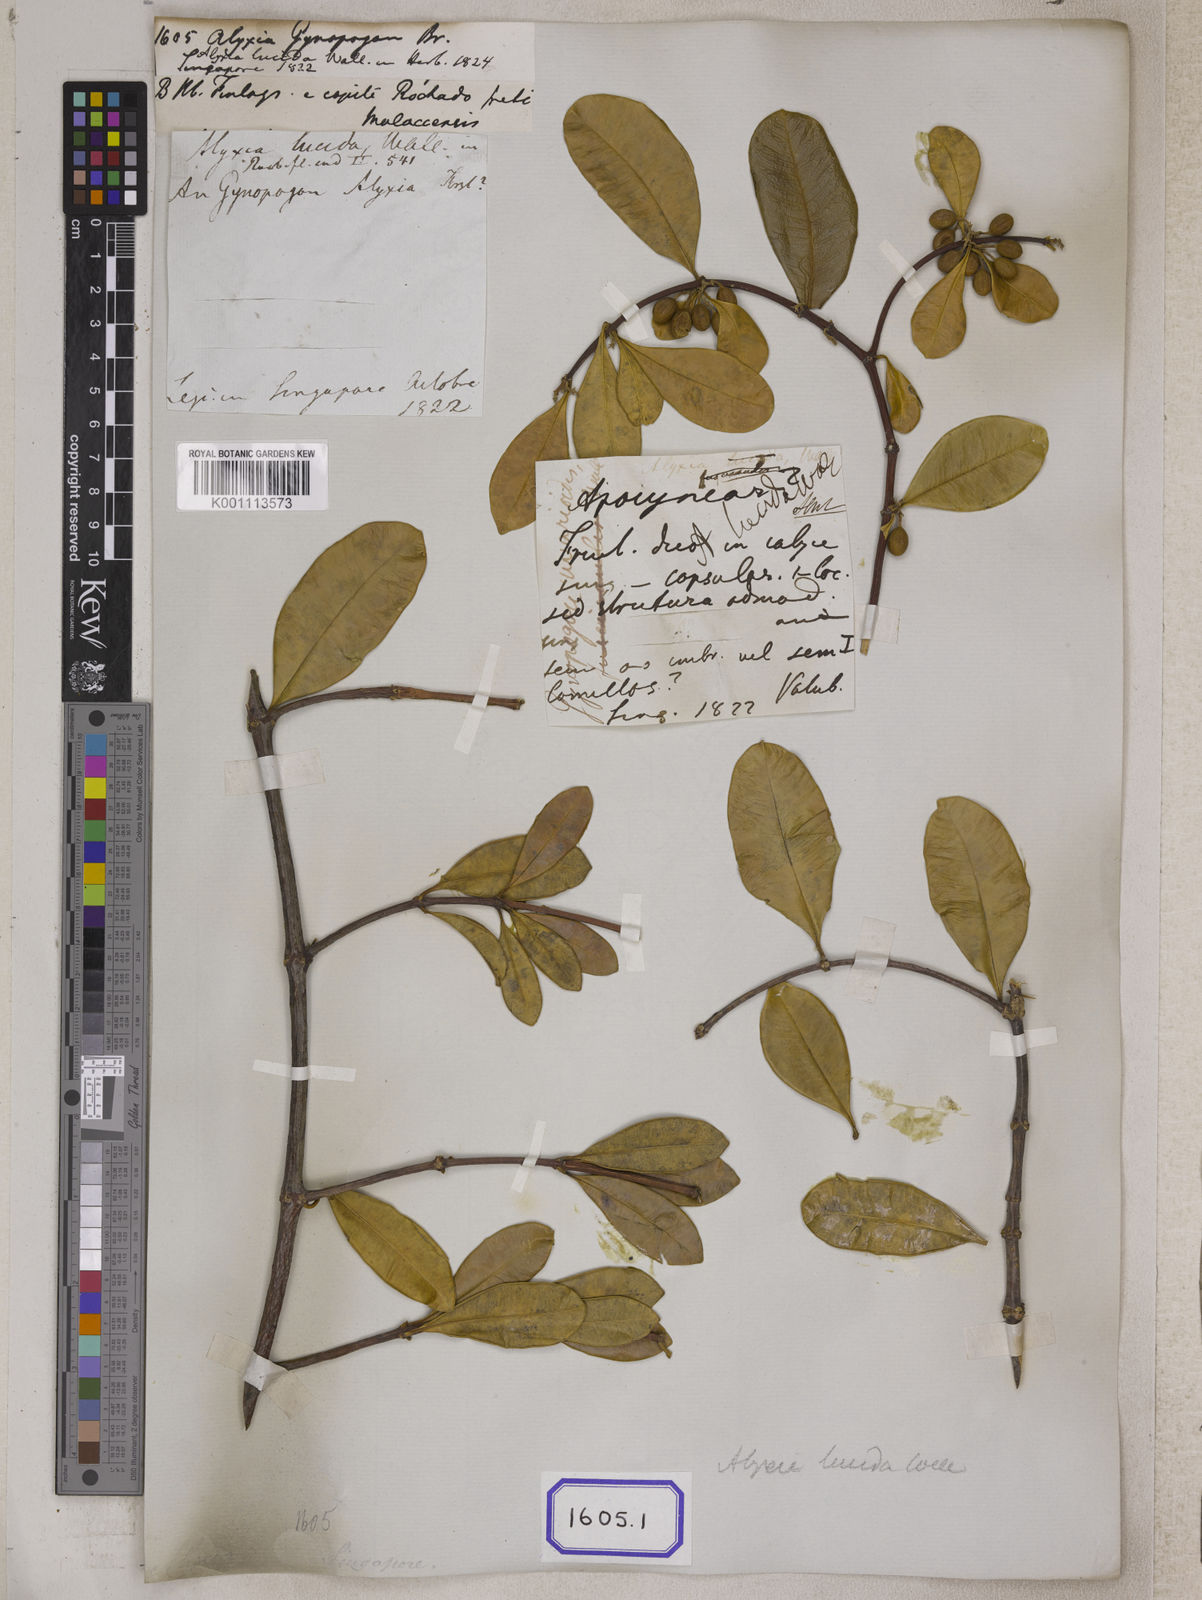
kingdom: Plantae
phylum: Tracheophyta
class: Magnoliopsida
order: Gentianales
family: Apocynaceae
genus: Alyxia
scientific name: Alyxia
